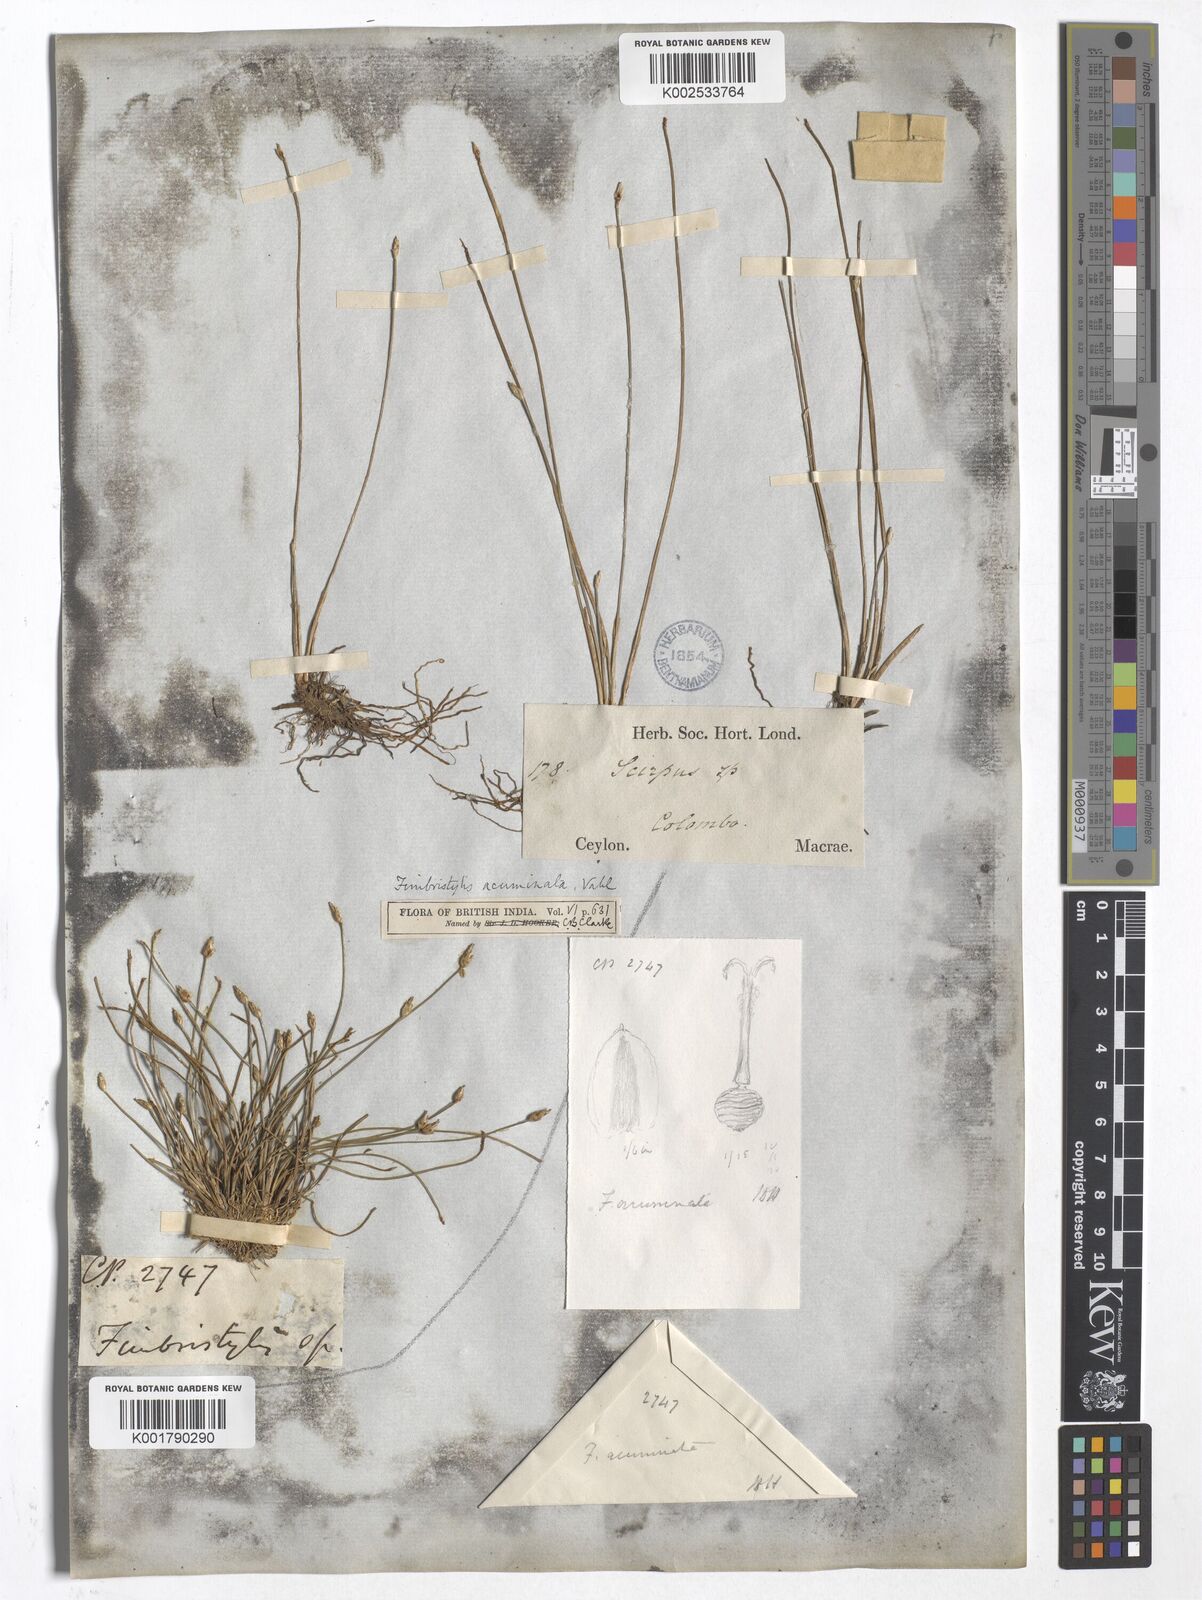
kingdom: Plantae
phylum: Tracheophyta
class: Liliopsida
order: Poales
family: Cyperaceae
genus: Fimbristylis
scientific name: Fimbristylis acuminata
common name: Pointed fimbristylis
